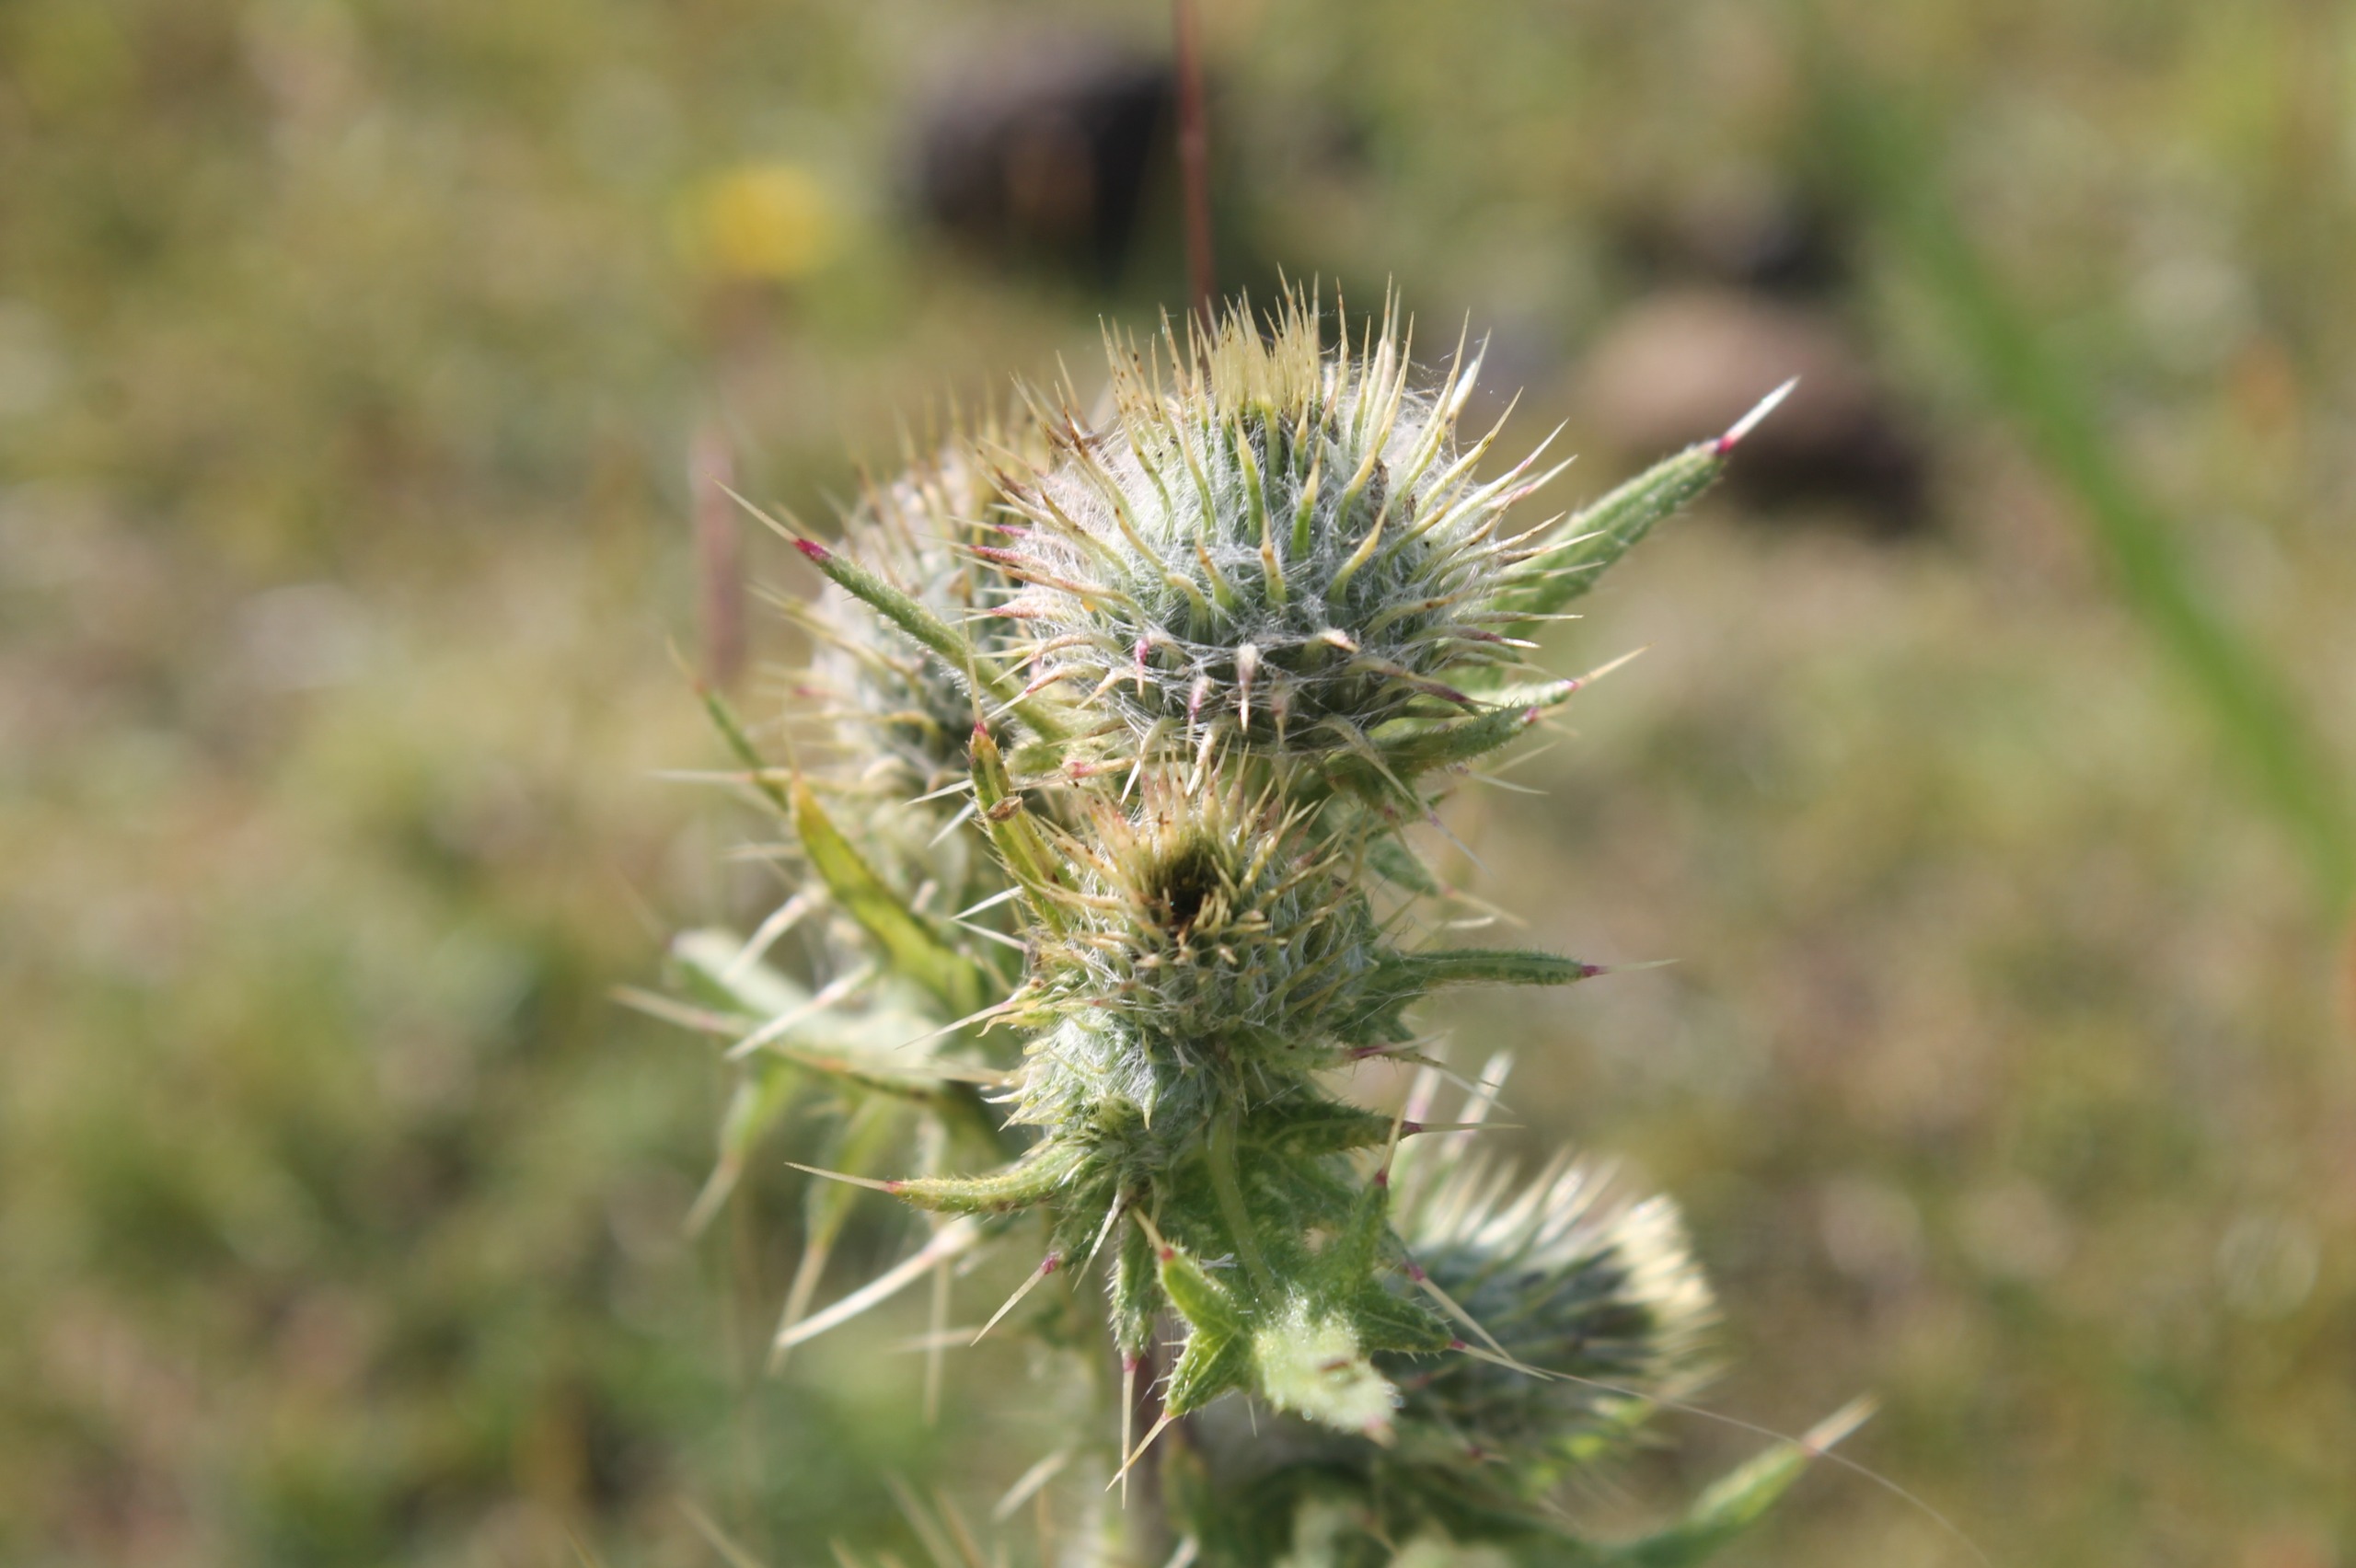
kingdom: Plantae
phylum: Tracheophyta
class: Magnoliopsida
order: Asterales
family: Asteraceae
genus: Cirsium
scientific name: Cirsium vulgare
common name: Horse-tidsel
